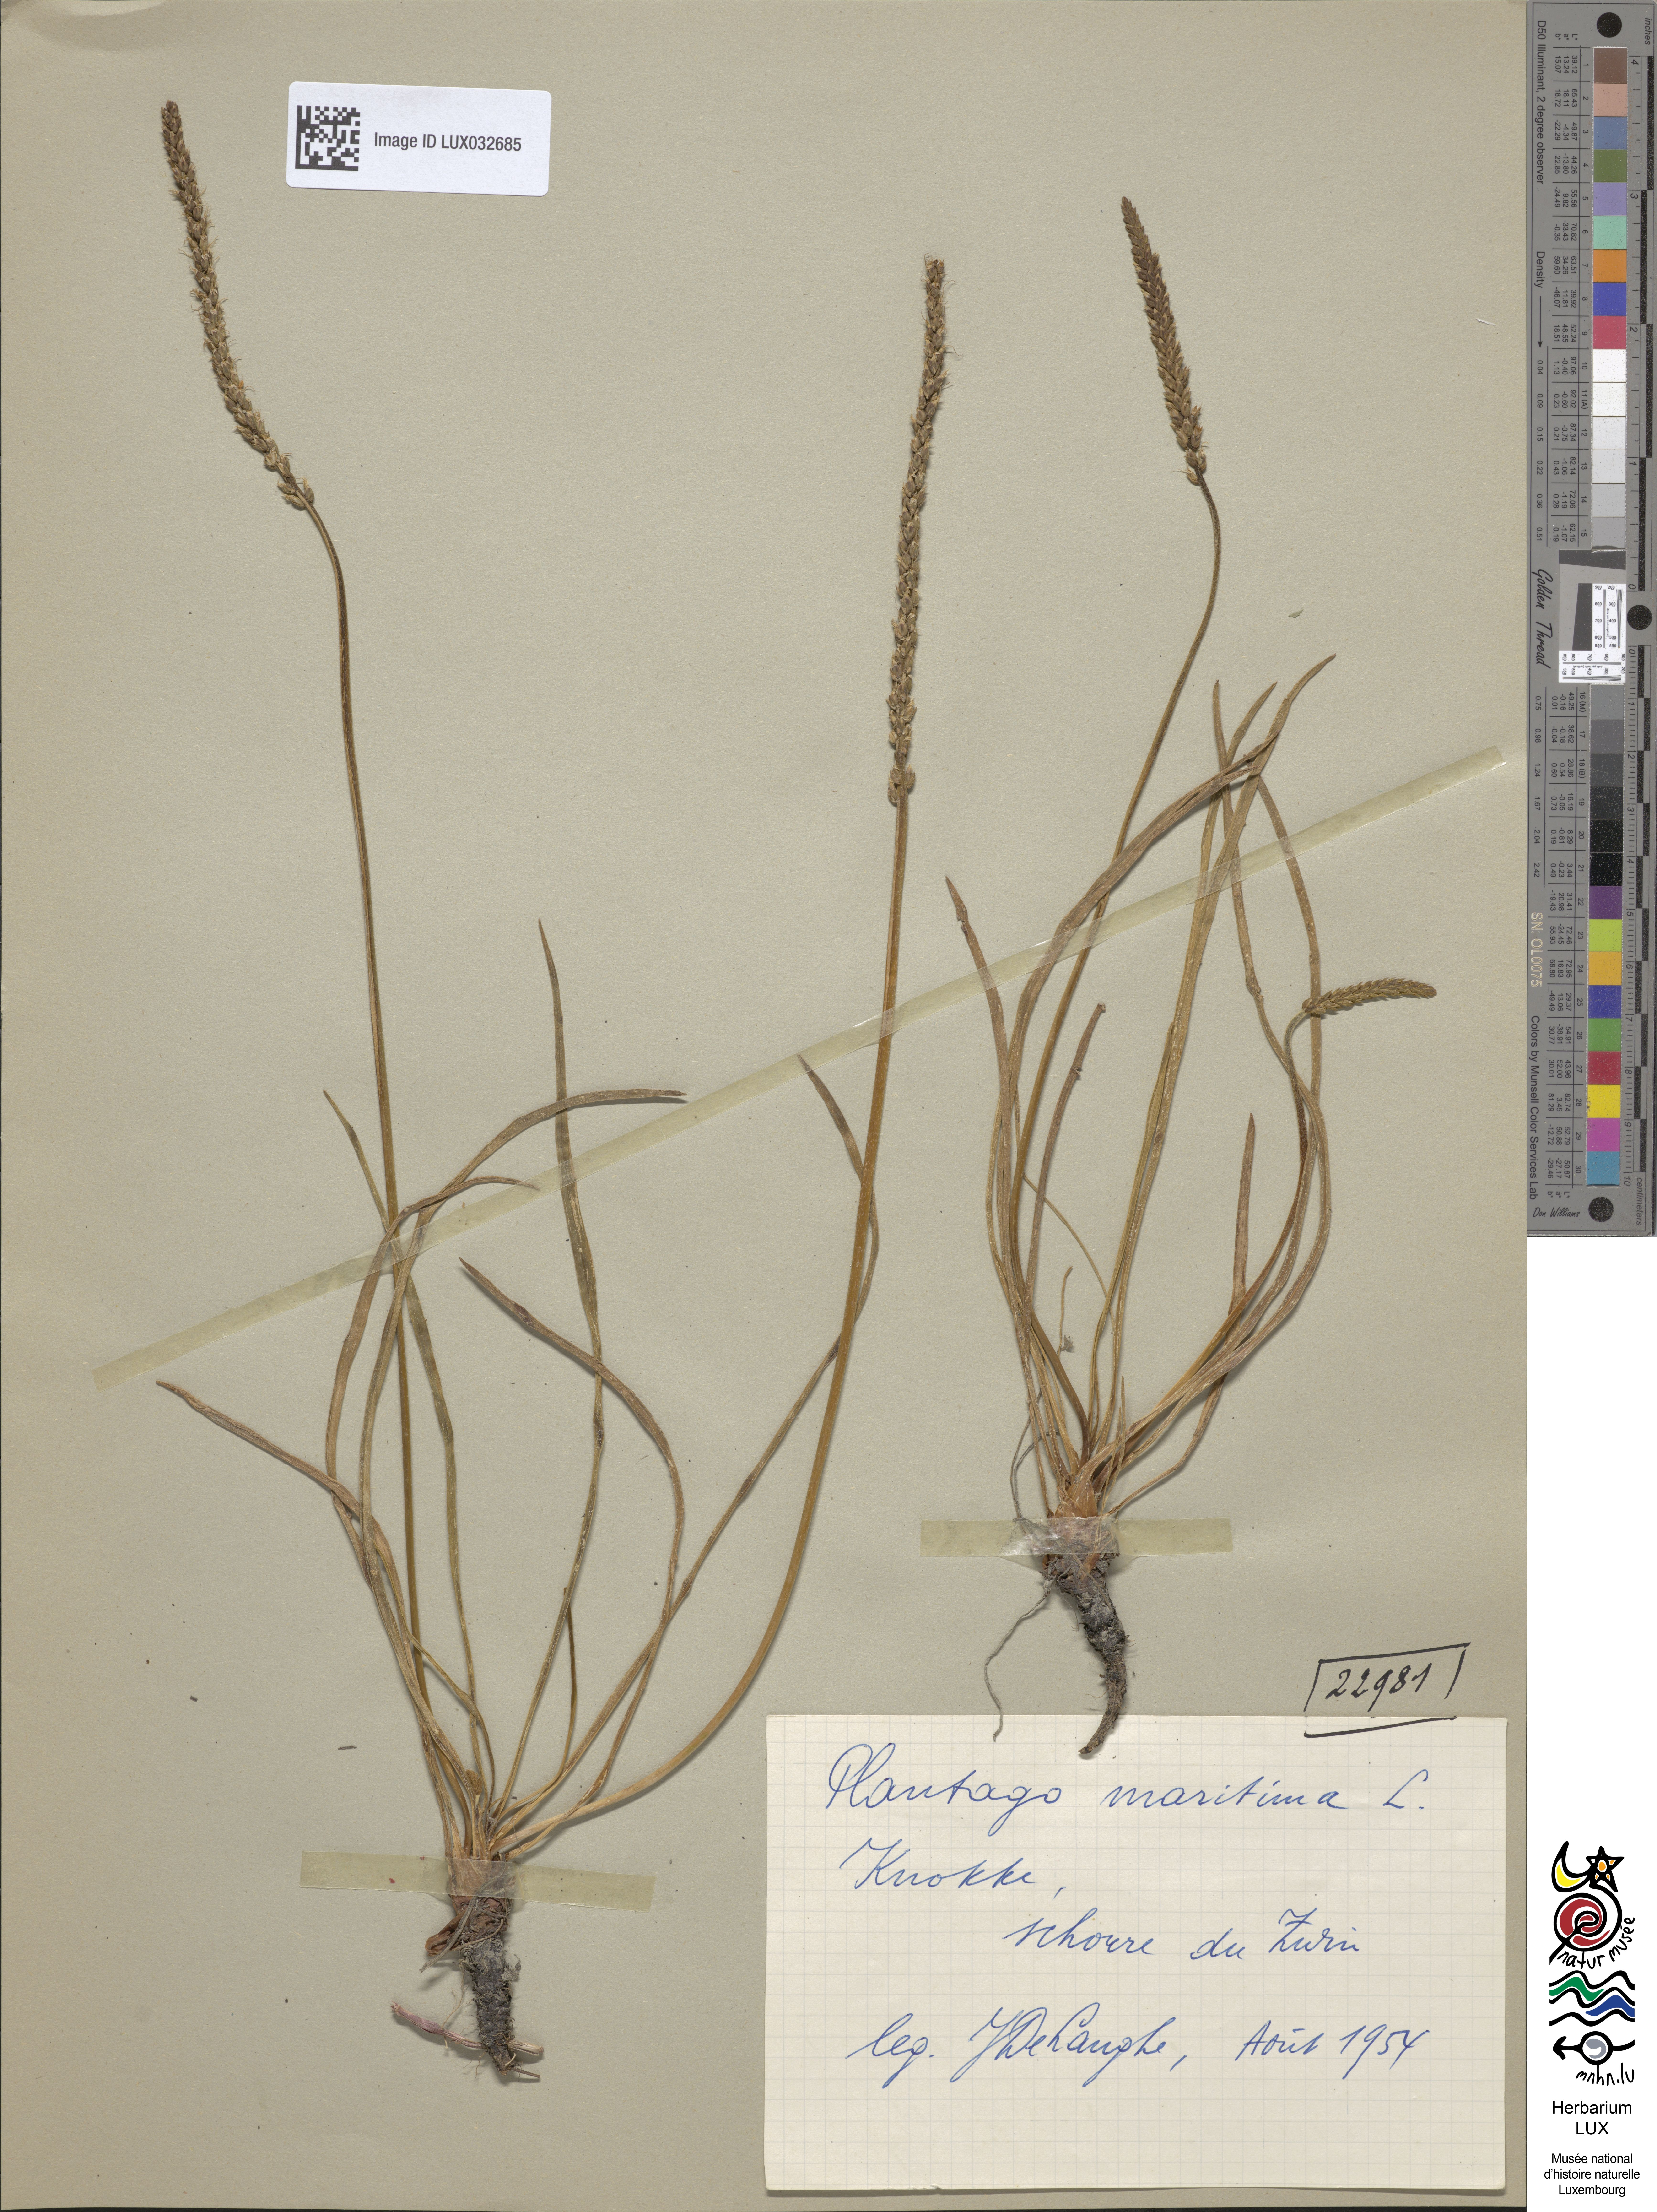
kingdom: Plantae
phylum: Tracheophyta
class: Magnoliopsida
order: Lamiales
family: Plantaginaceae
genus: Plantago
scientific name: Plantago maritima
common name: Sea plantain
